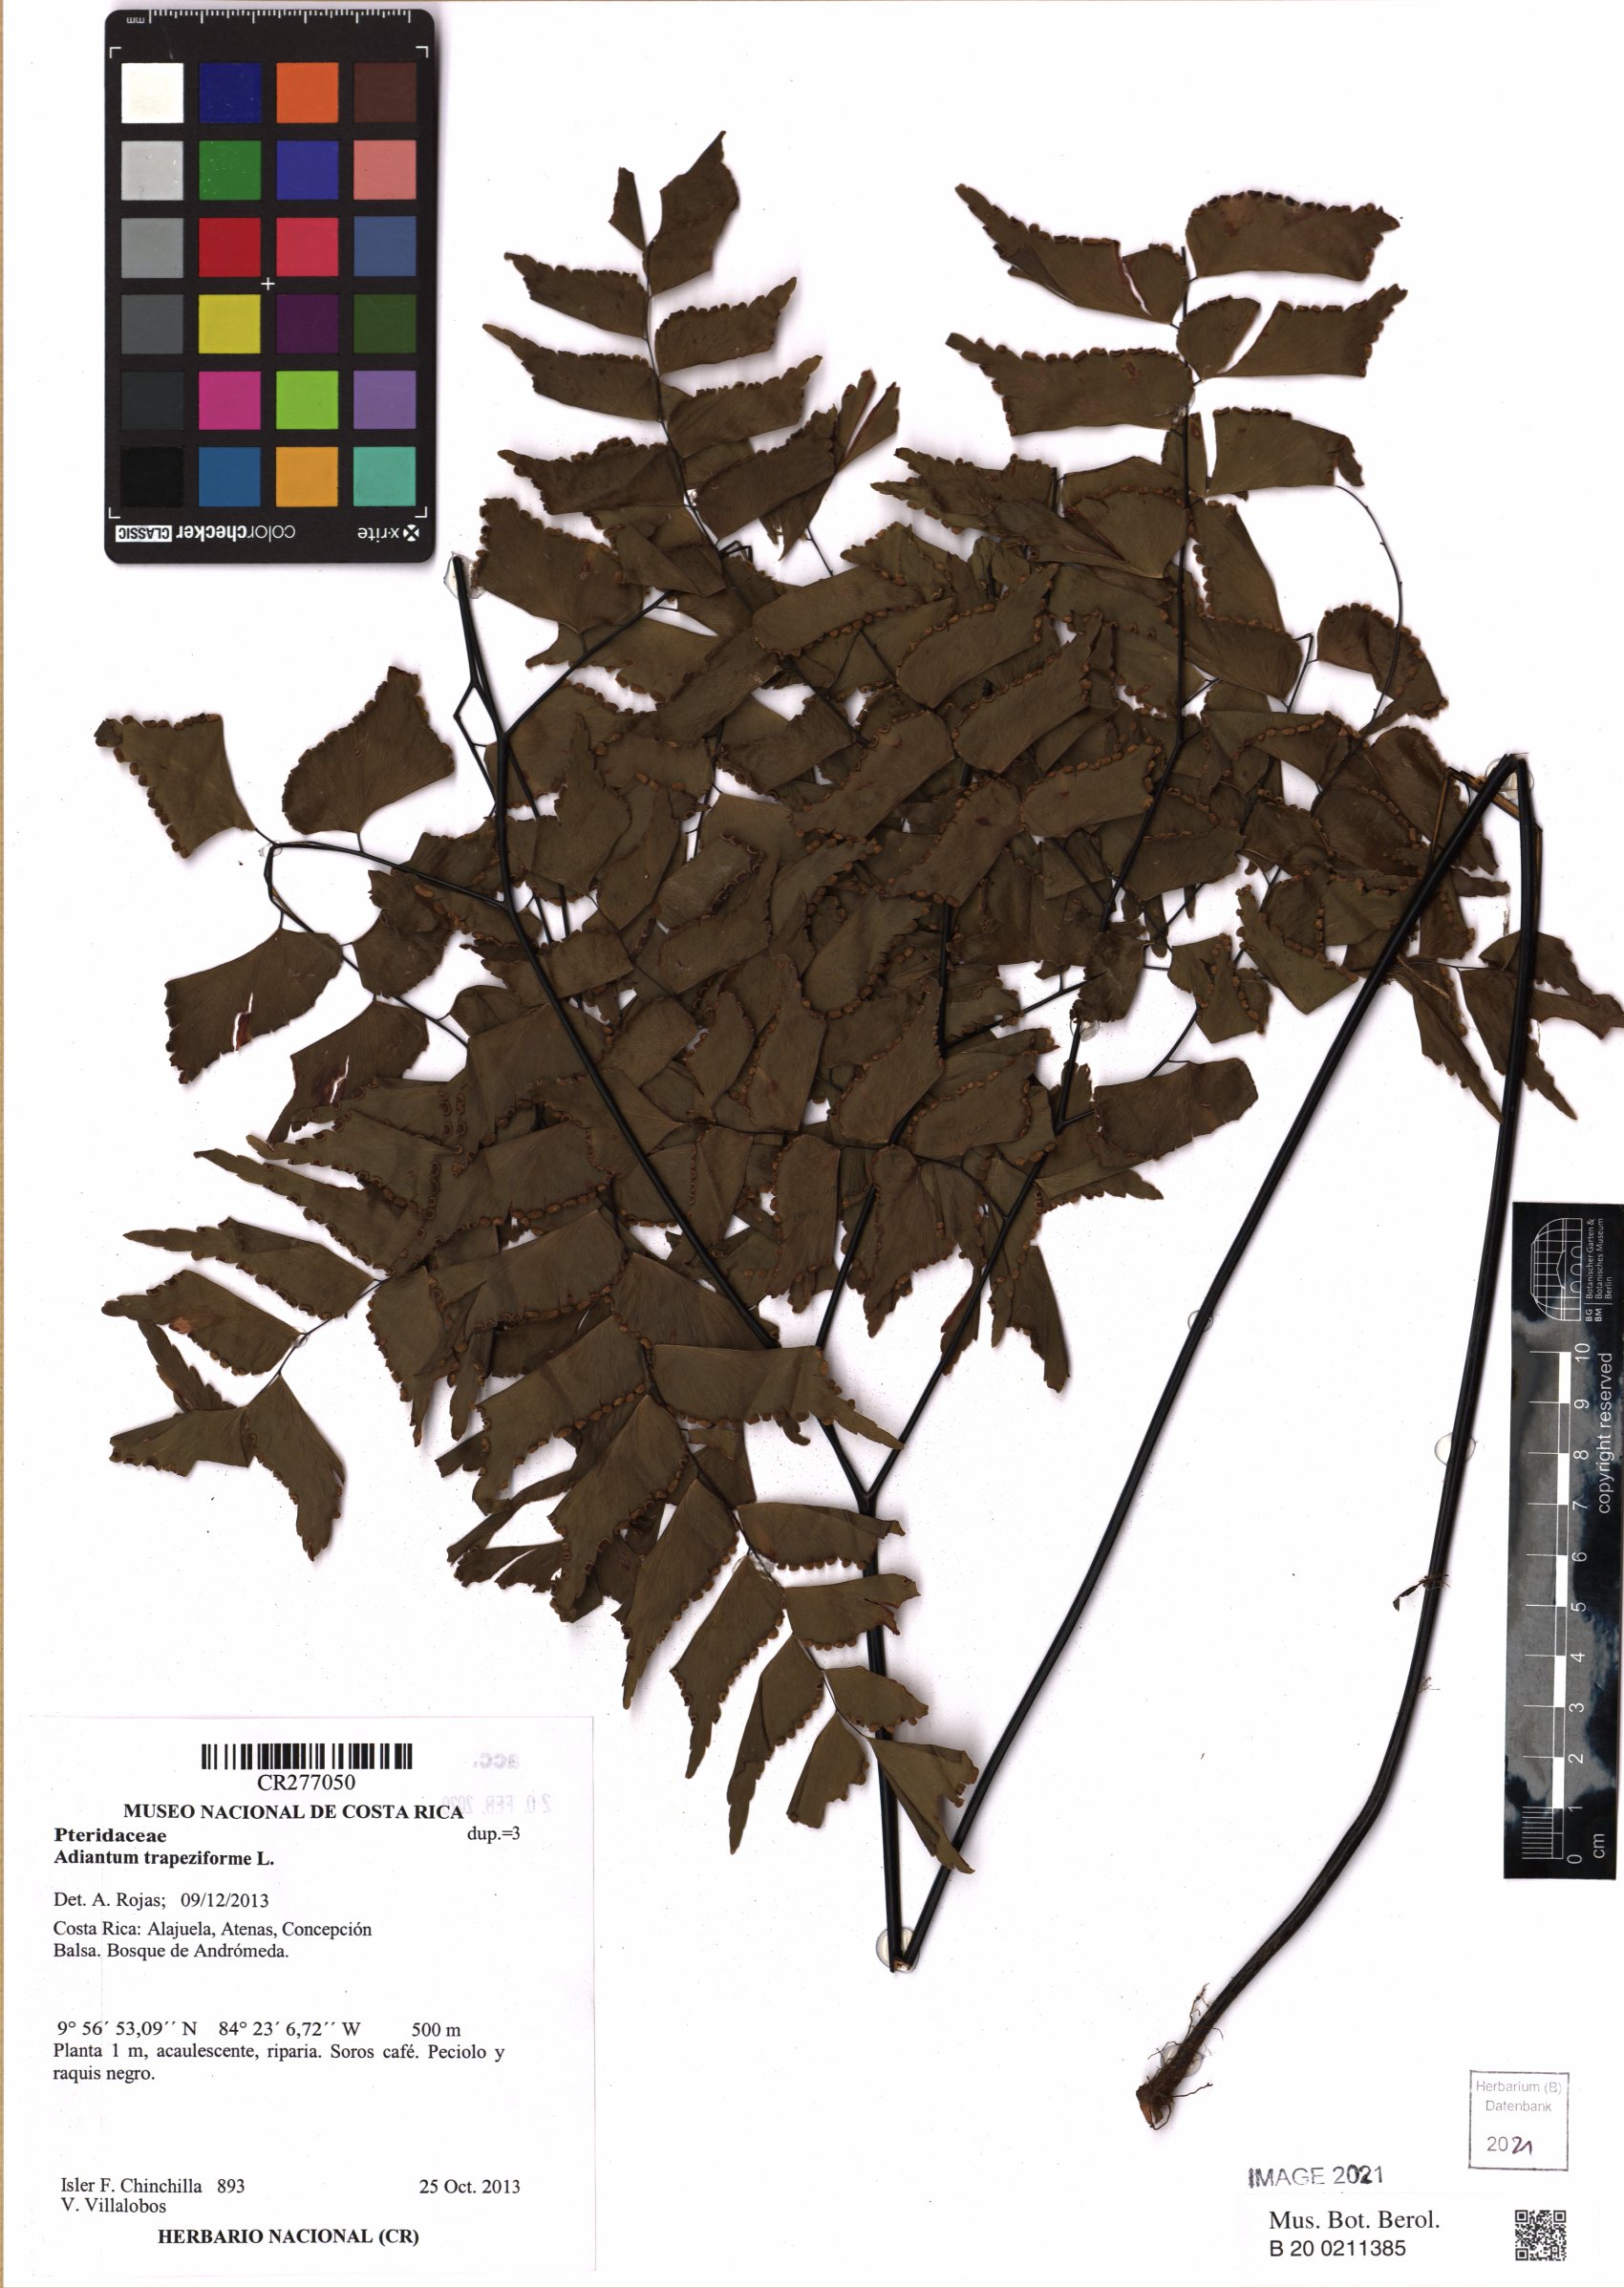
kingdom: Plantae
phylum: Tracheophyta
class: Polypodiopsida
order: Polypodiales
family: Pteridaceae
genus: Adiantum
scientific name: Adiantum trapeziforme
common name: Diamond maidenhair
